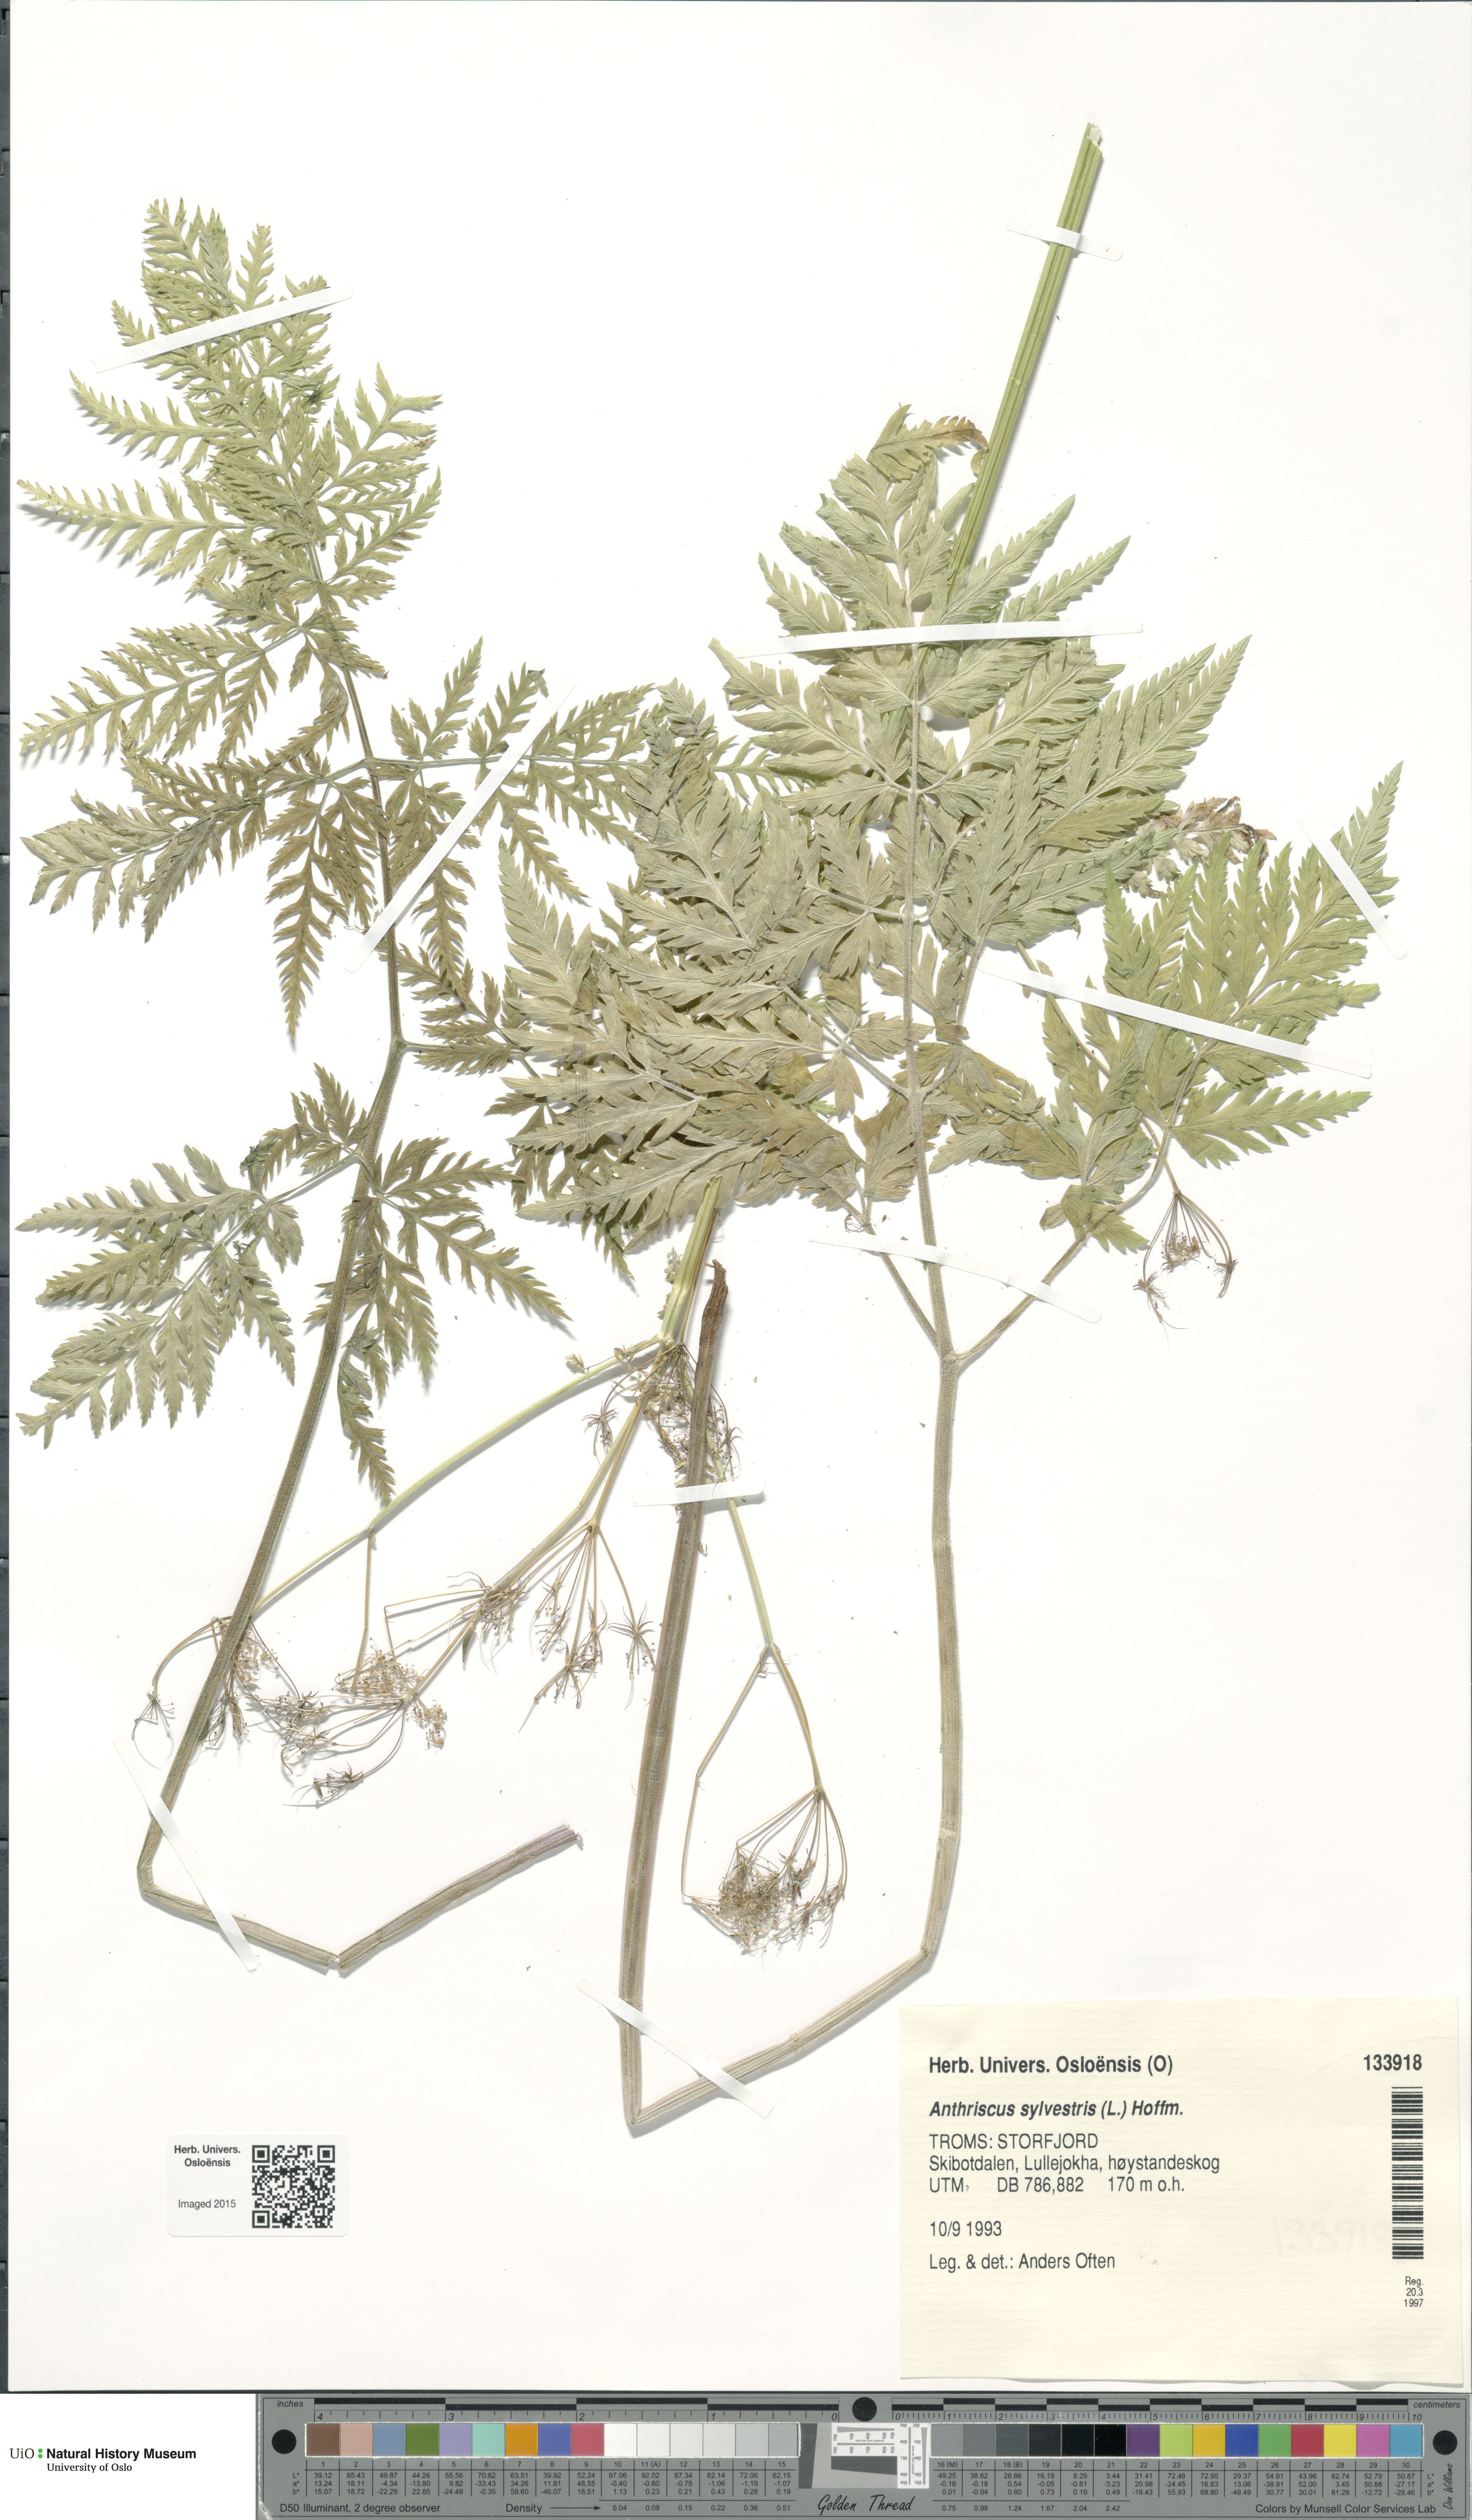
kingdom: Plantae
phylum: Tracheophyta
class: Magnoliopsida
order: Apiales
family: Apiaceae
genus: Anthriscus
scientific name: Anthriscus sylvestris
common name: Cow parsley
